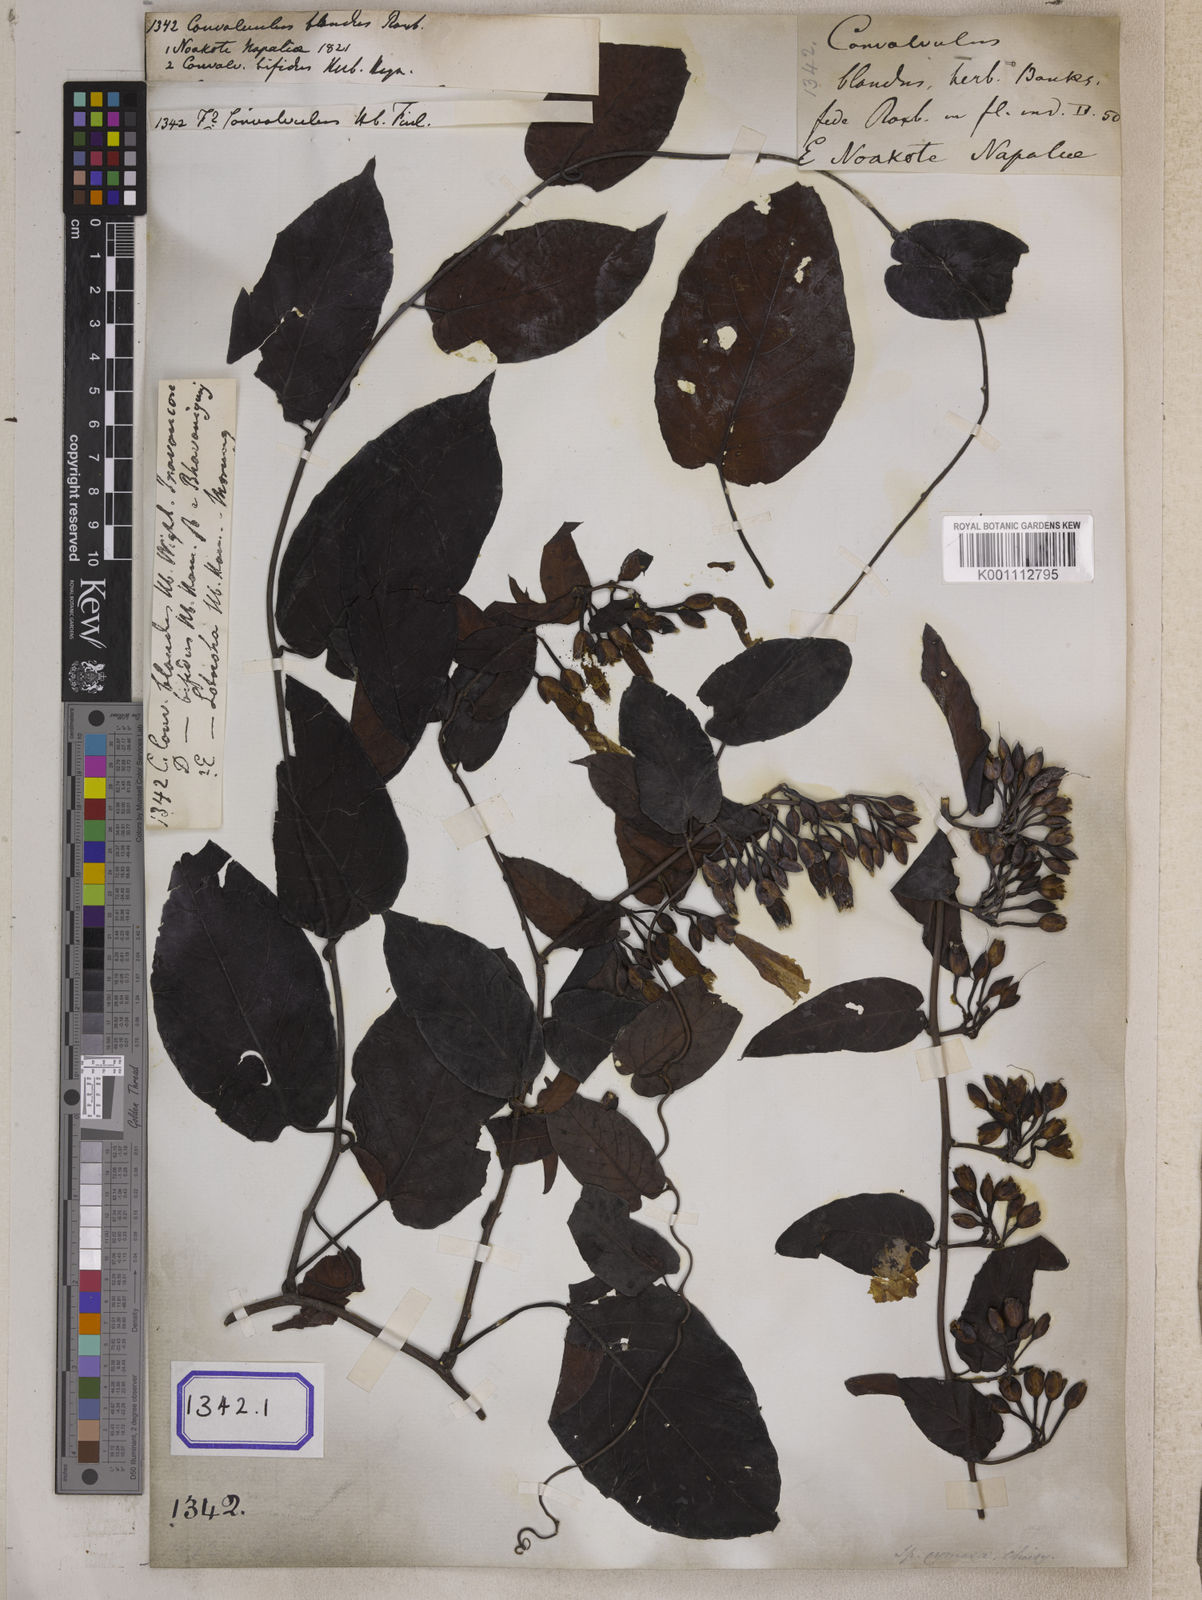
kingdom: Plantae
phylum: Tracheophyta
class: Magnoliopsida
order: Solanales
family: Convolvulaceae
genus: Camonea
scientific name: Camonea umbellata
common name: Hogvine
